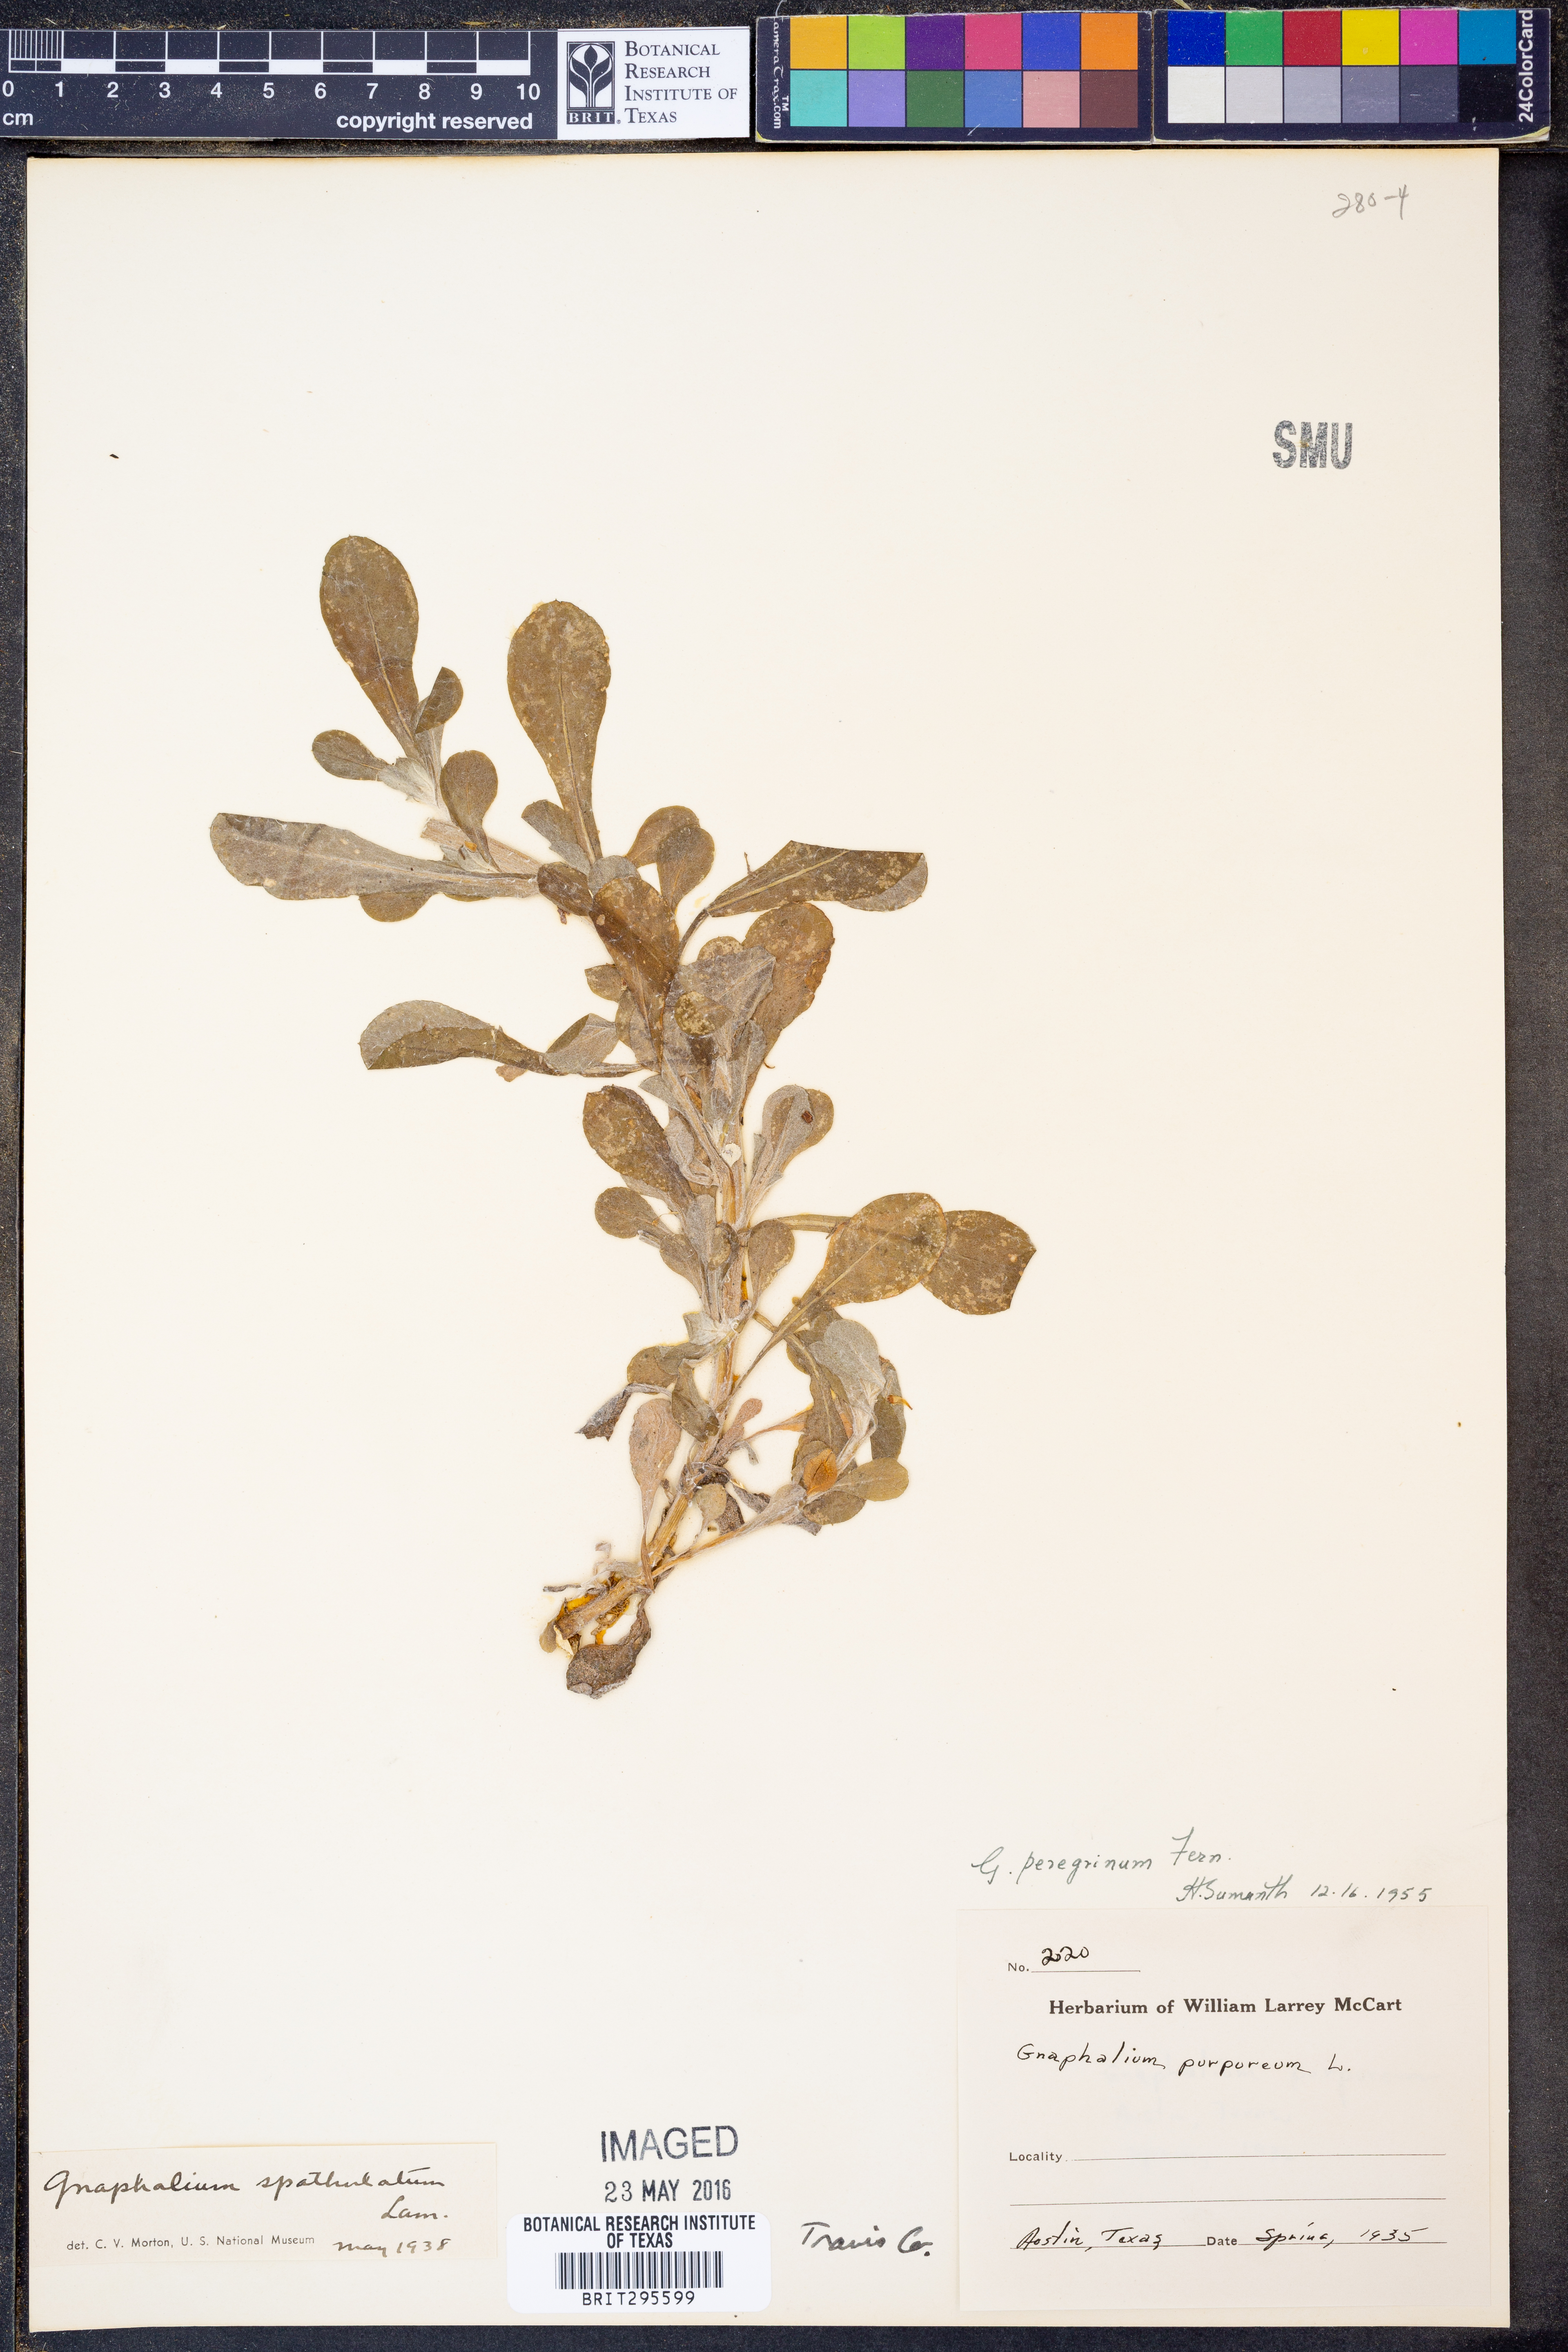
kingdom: Plantae
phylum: Tracheophyta
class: Magnoliopsida
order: Asterales
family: Asteraceae
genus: Gamochaeta
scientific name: Gamochaeta pensylvanica
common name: Pennsylvania everlasting
